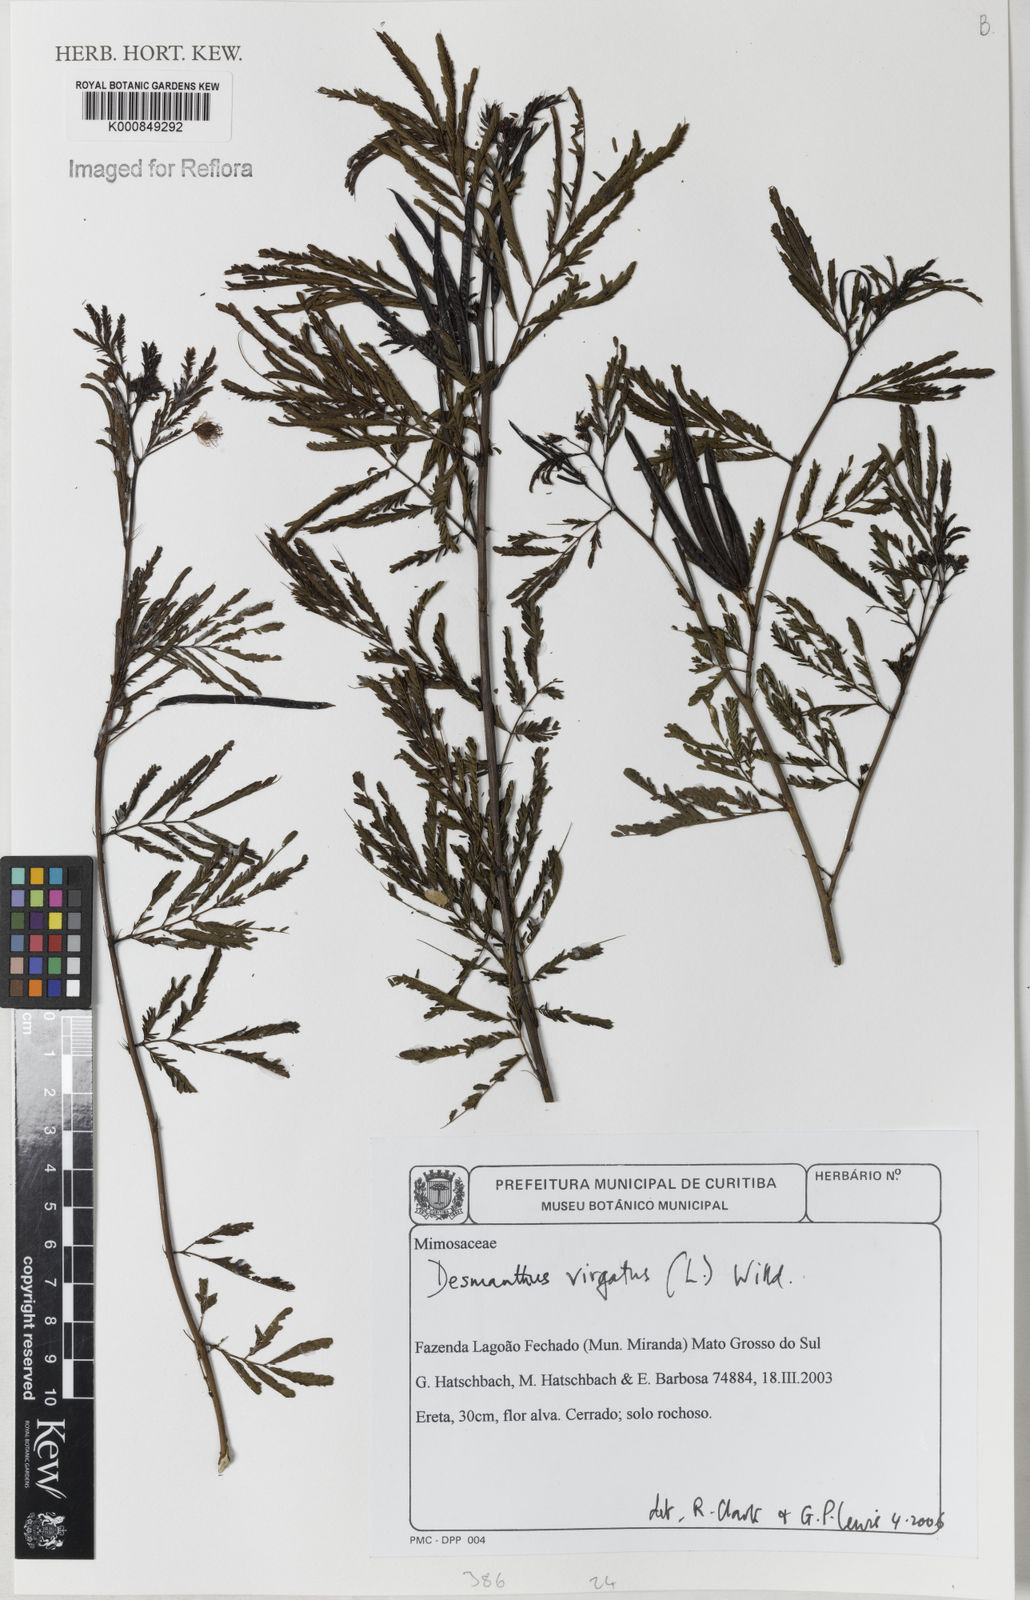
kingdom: Plantae
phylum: Tracheophyta
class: Magnoliopsida
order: Fabales
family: Fabaceae
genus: Desmanthus
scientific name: Desmanthus virgatus
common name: Wild tantan
